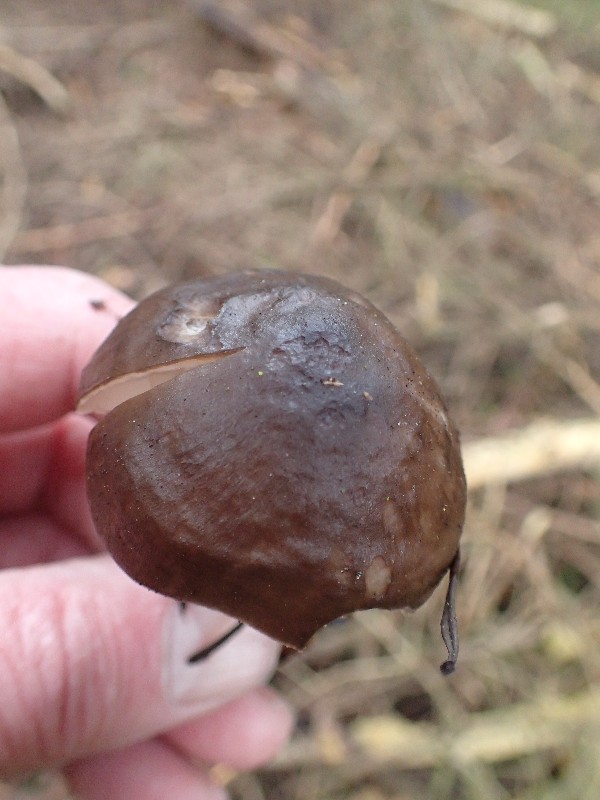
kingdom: Fungi
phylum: Basidiomycota
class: Agaricomycetes
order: Agaricales
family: Pluteaceae
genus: Pluteus
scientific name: Pluteus
